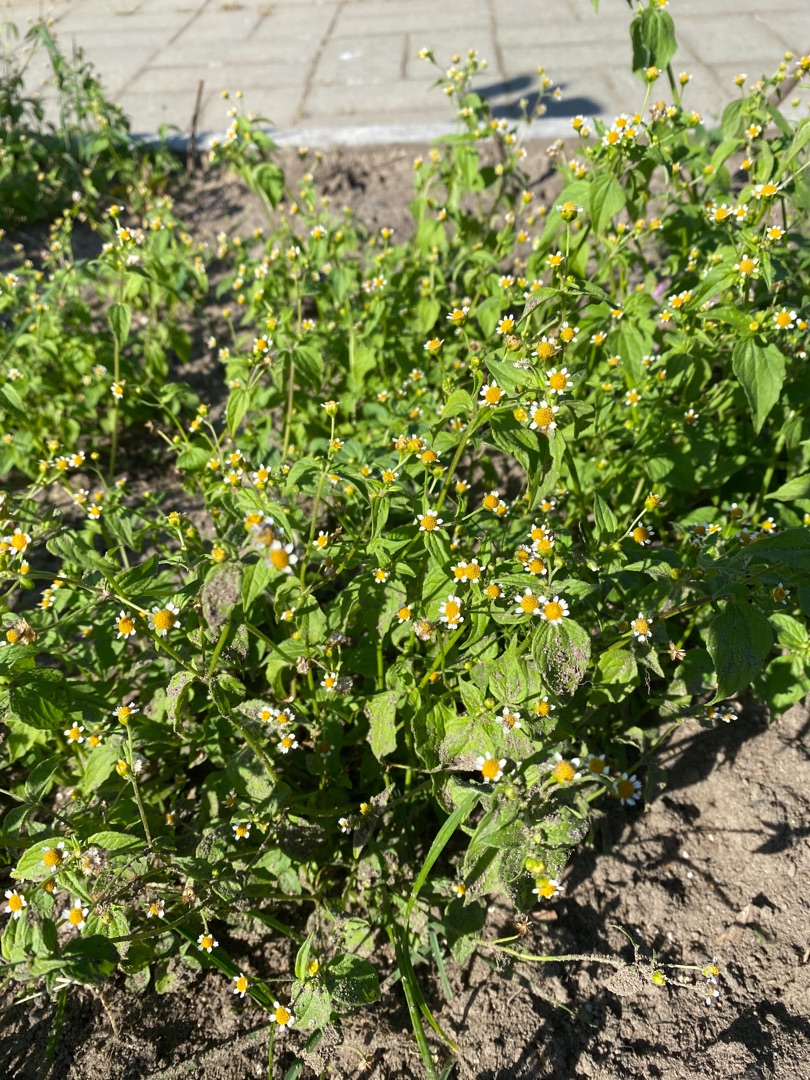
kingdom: Plantae
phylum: Tracheophyta
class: Magnoliopsida
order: Asterales
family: Asteraceae
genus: Galinsoga
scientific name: Galinsoga parviflora
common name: Håret kortstråle
